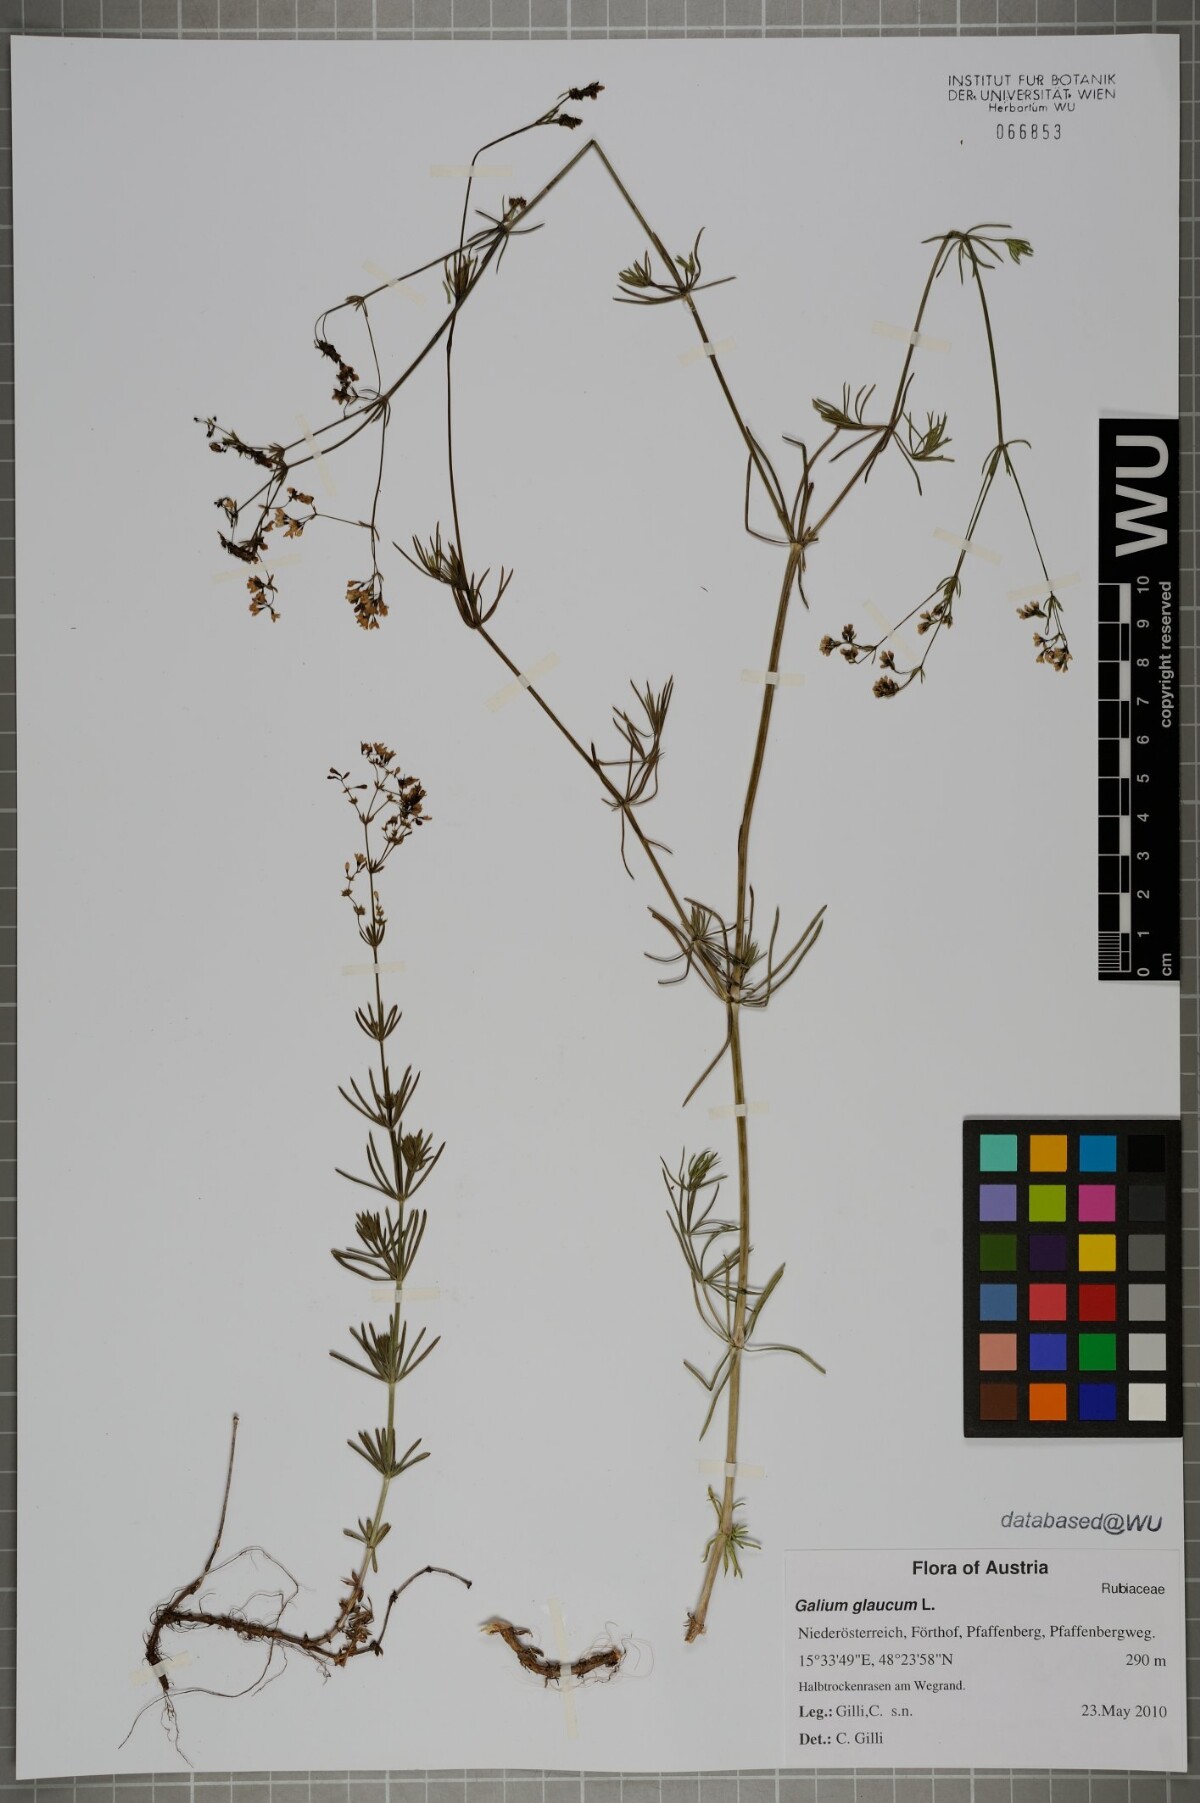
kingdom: Plantae
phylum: Tracheophyta
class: Magnoliopsida
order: Gentianales
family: Rubiaceae
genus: Galium
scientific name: Galium glaucum
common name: Waxy bedstraw
